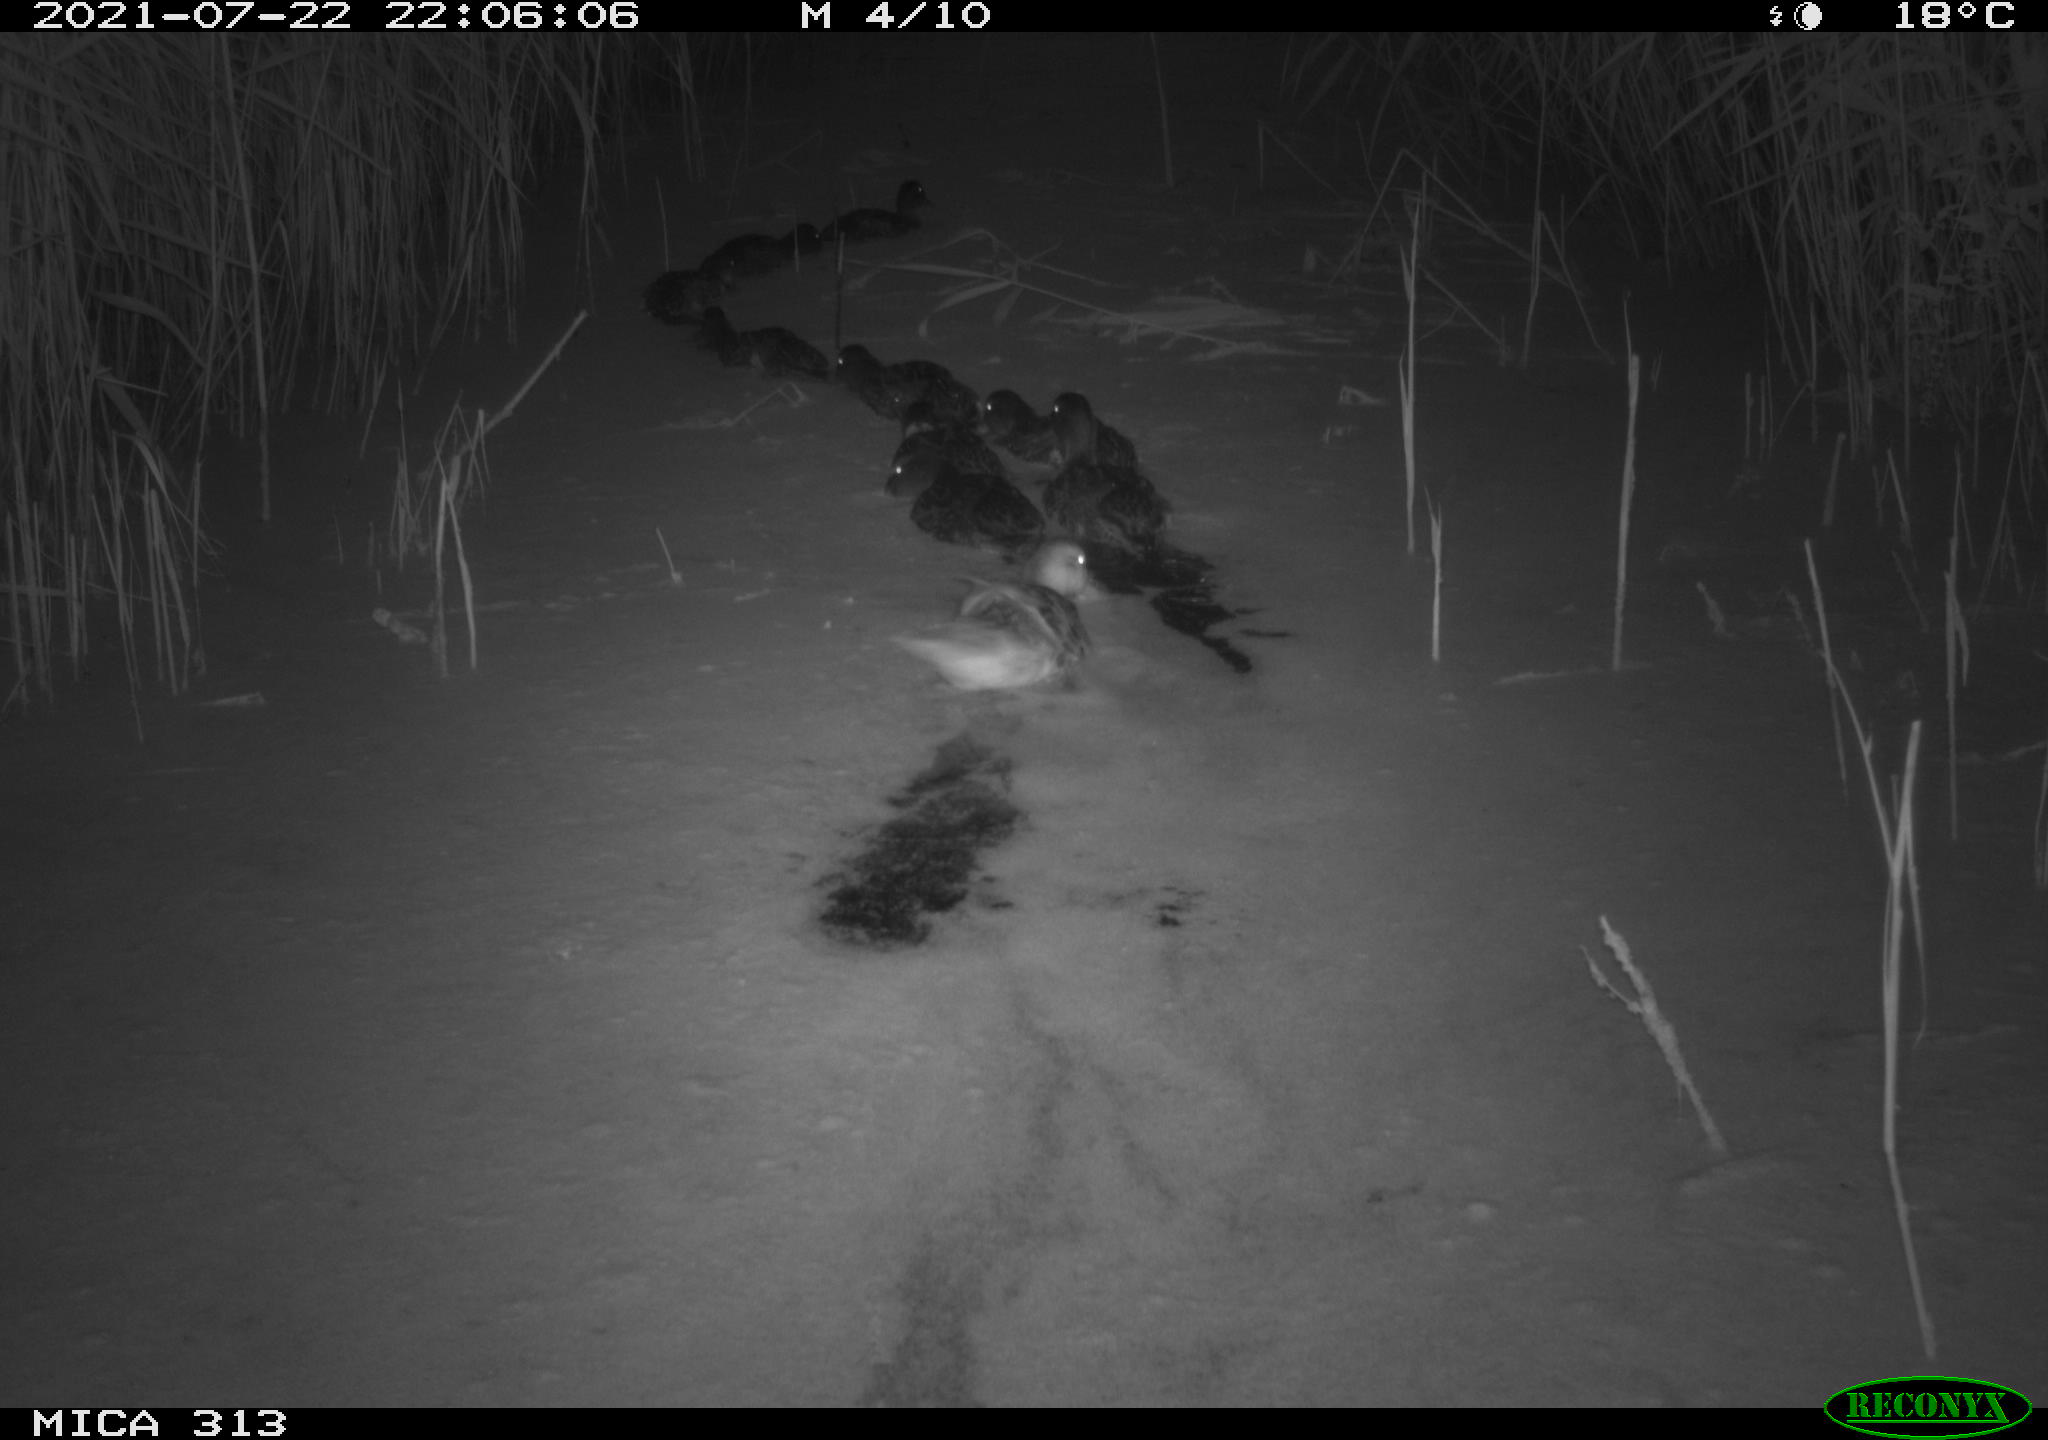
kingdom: Animalia
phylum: Chordata
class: Aves
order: Anseriformes
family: Anatidae
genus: Anas
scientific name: Anas platyrhynchos
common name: Mallard
